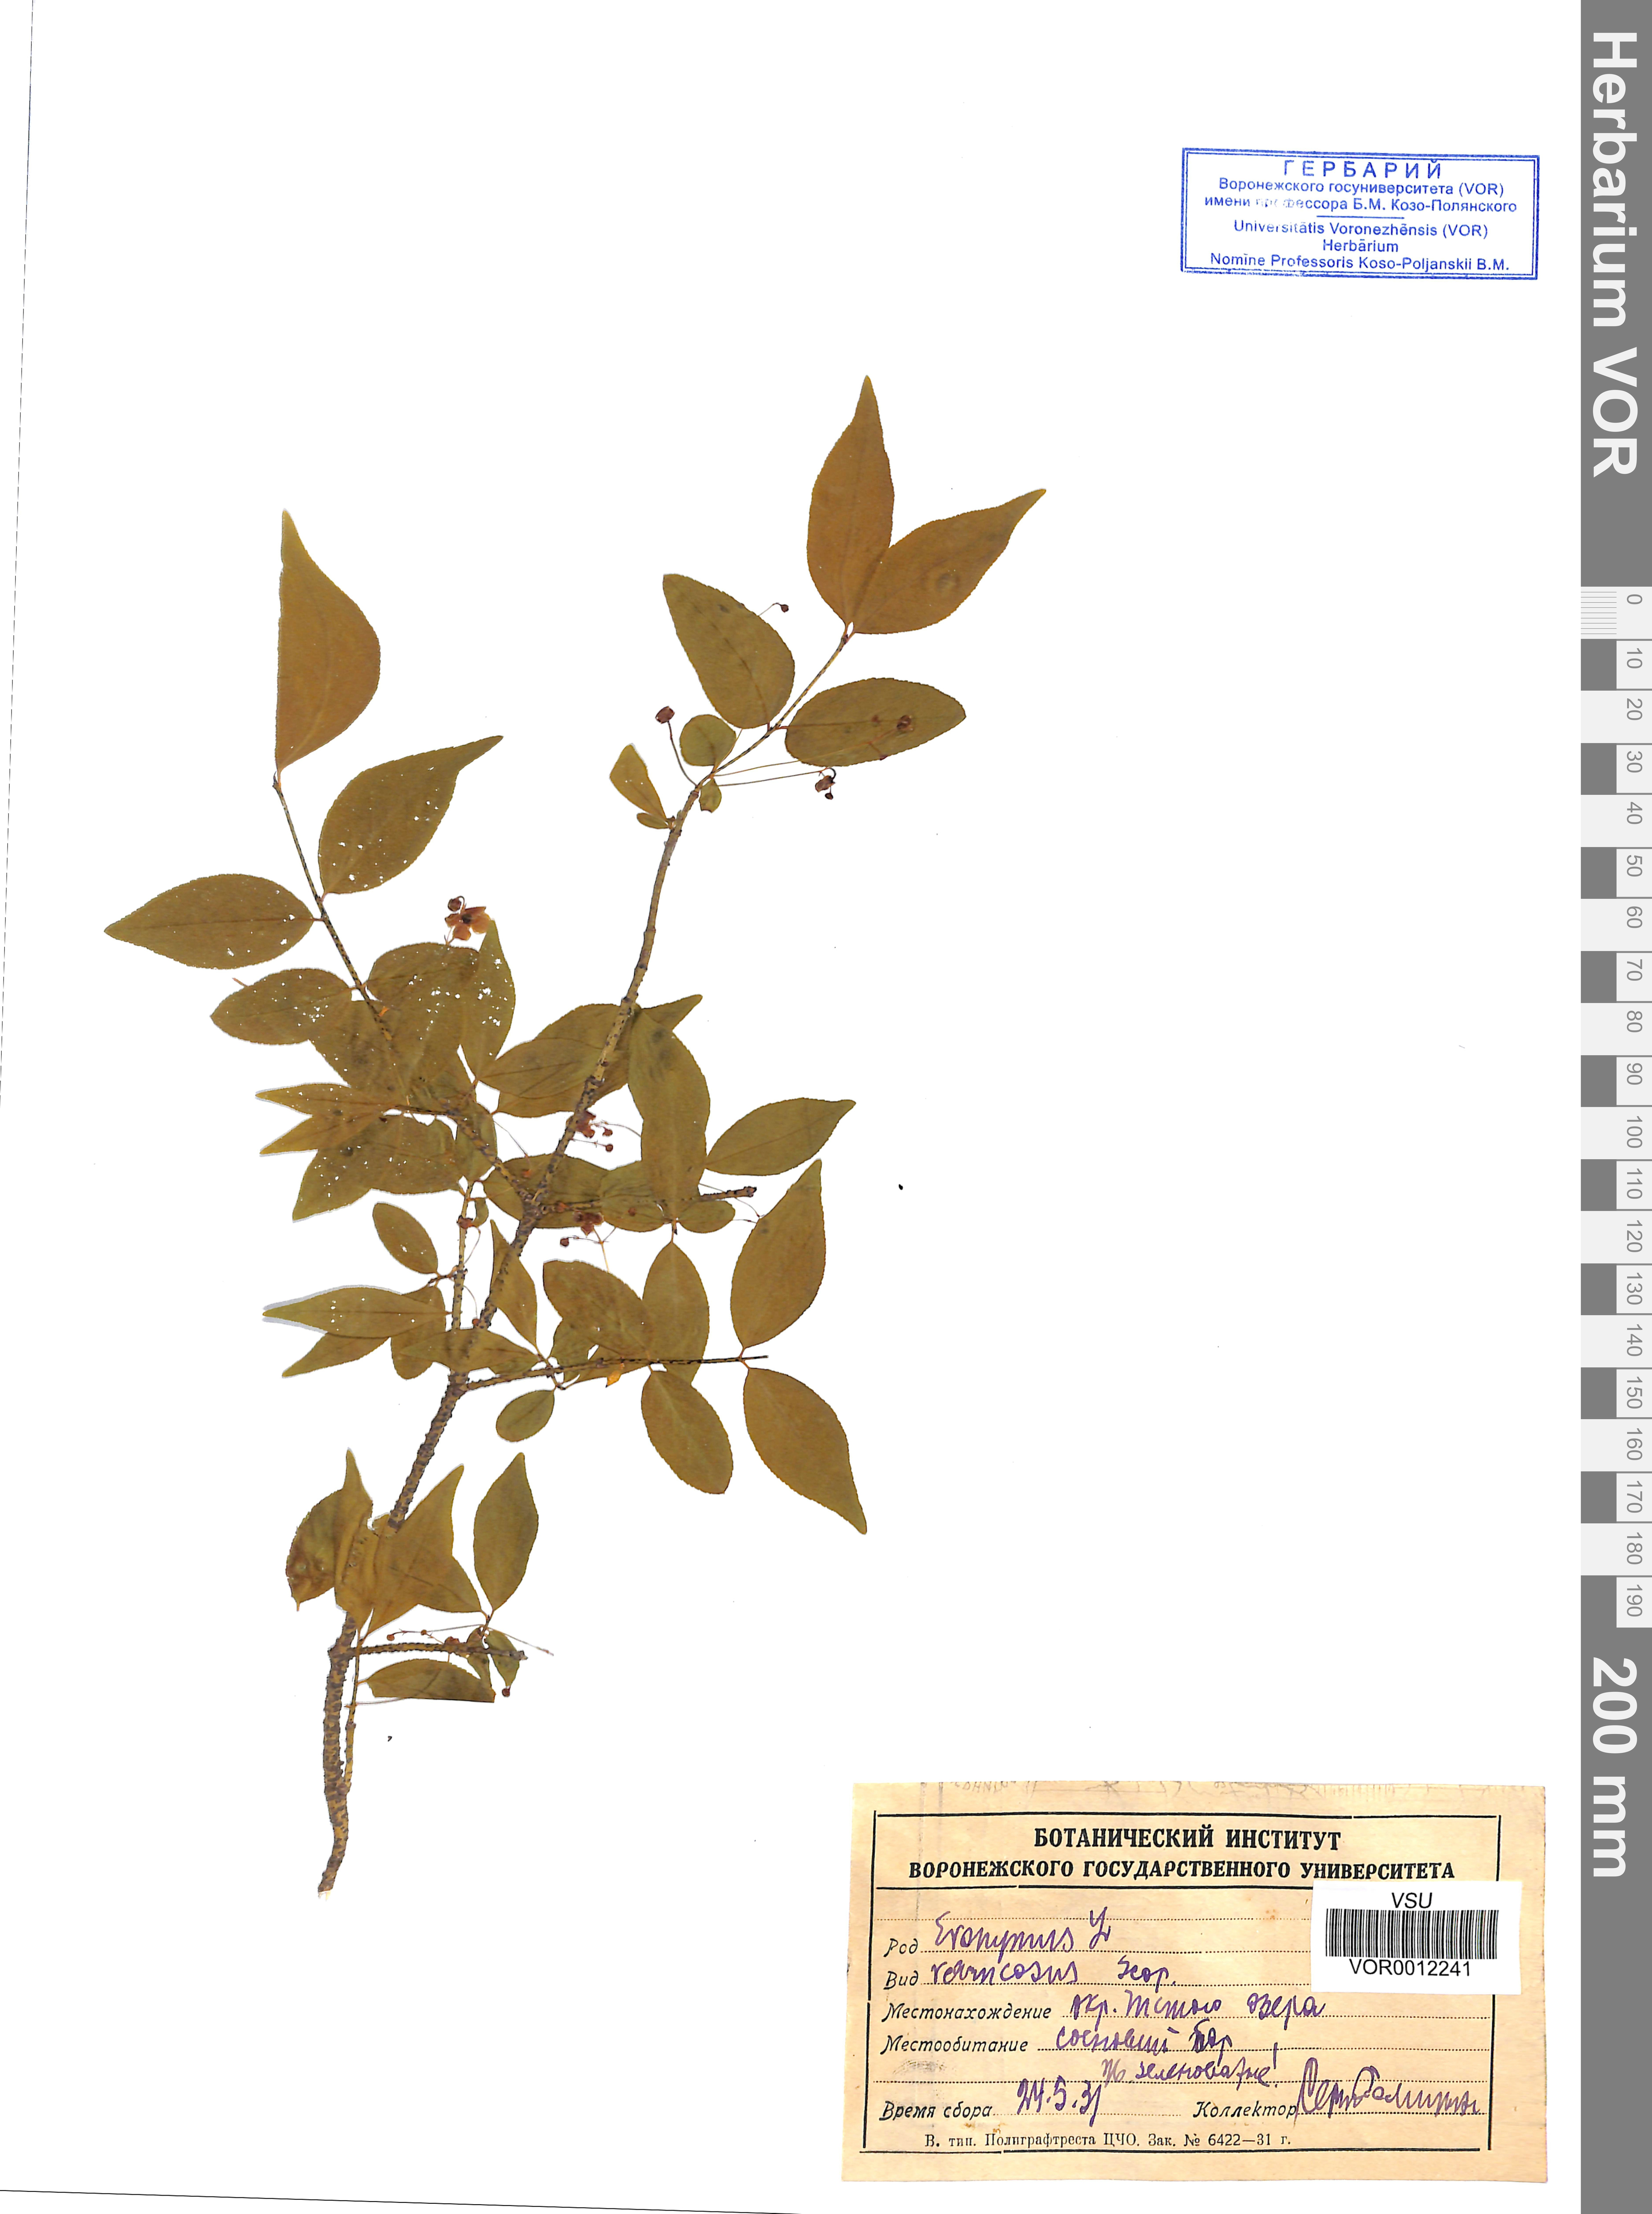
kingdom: Plantae
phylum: Tracheophyta
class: Magnoliopsida
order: Celastrales
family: Celastraceae
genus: Euonymus
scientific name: Euonymus verrucosus
